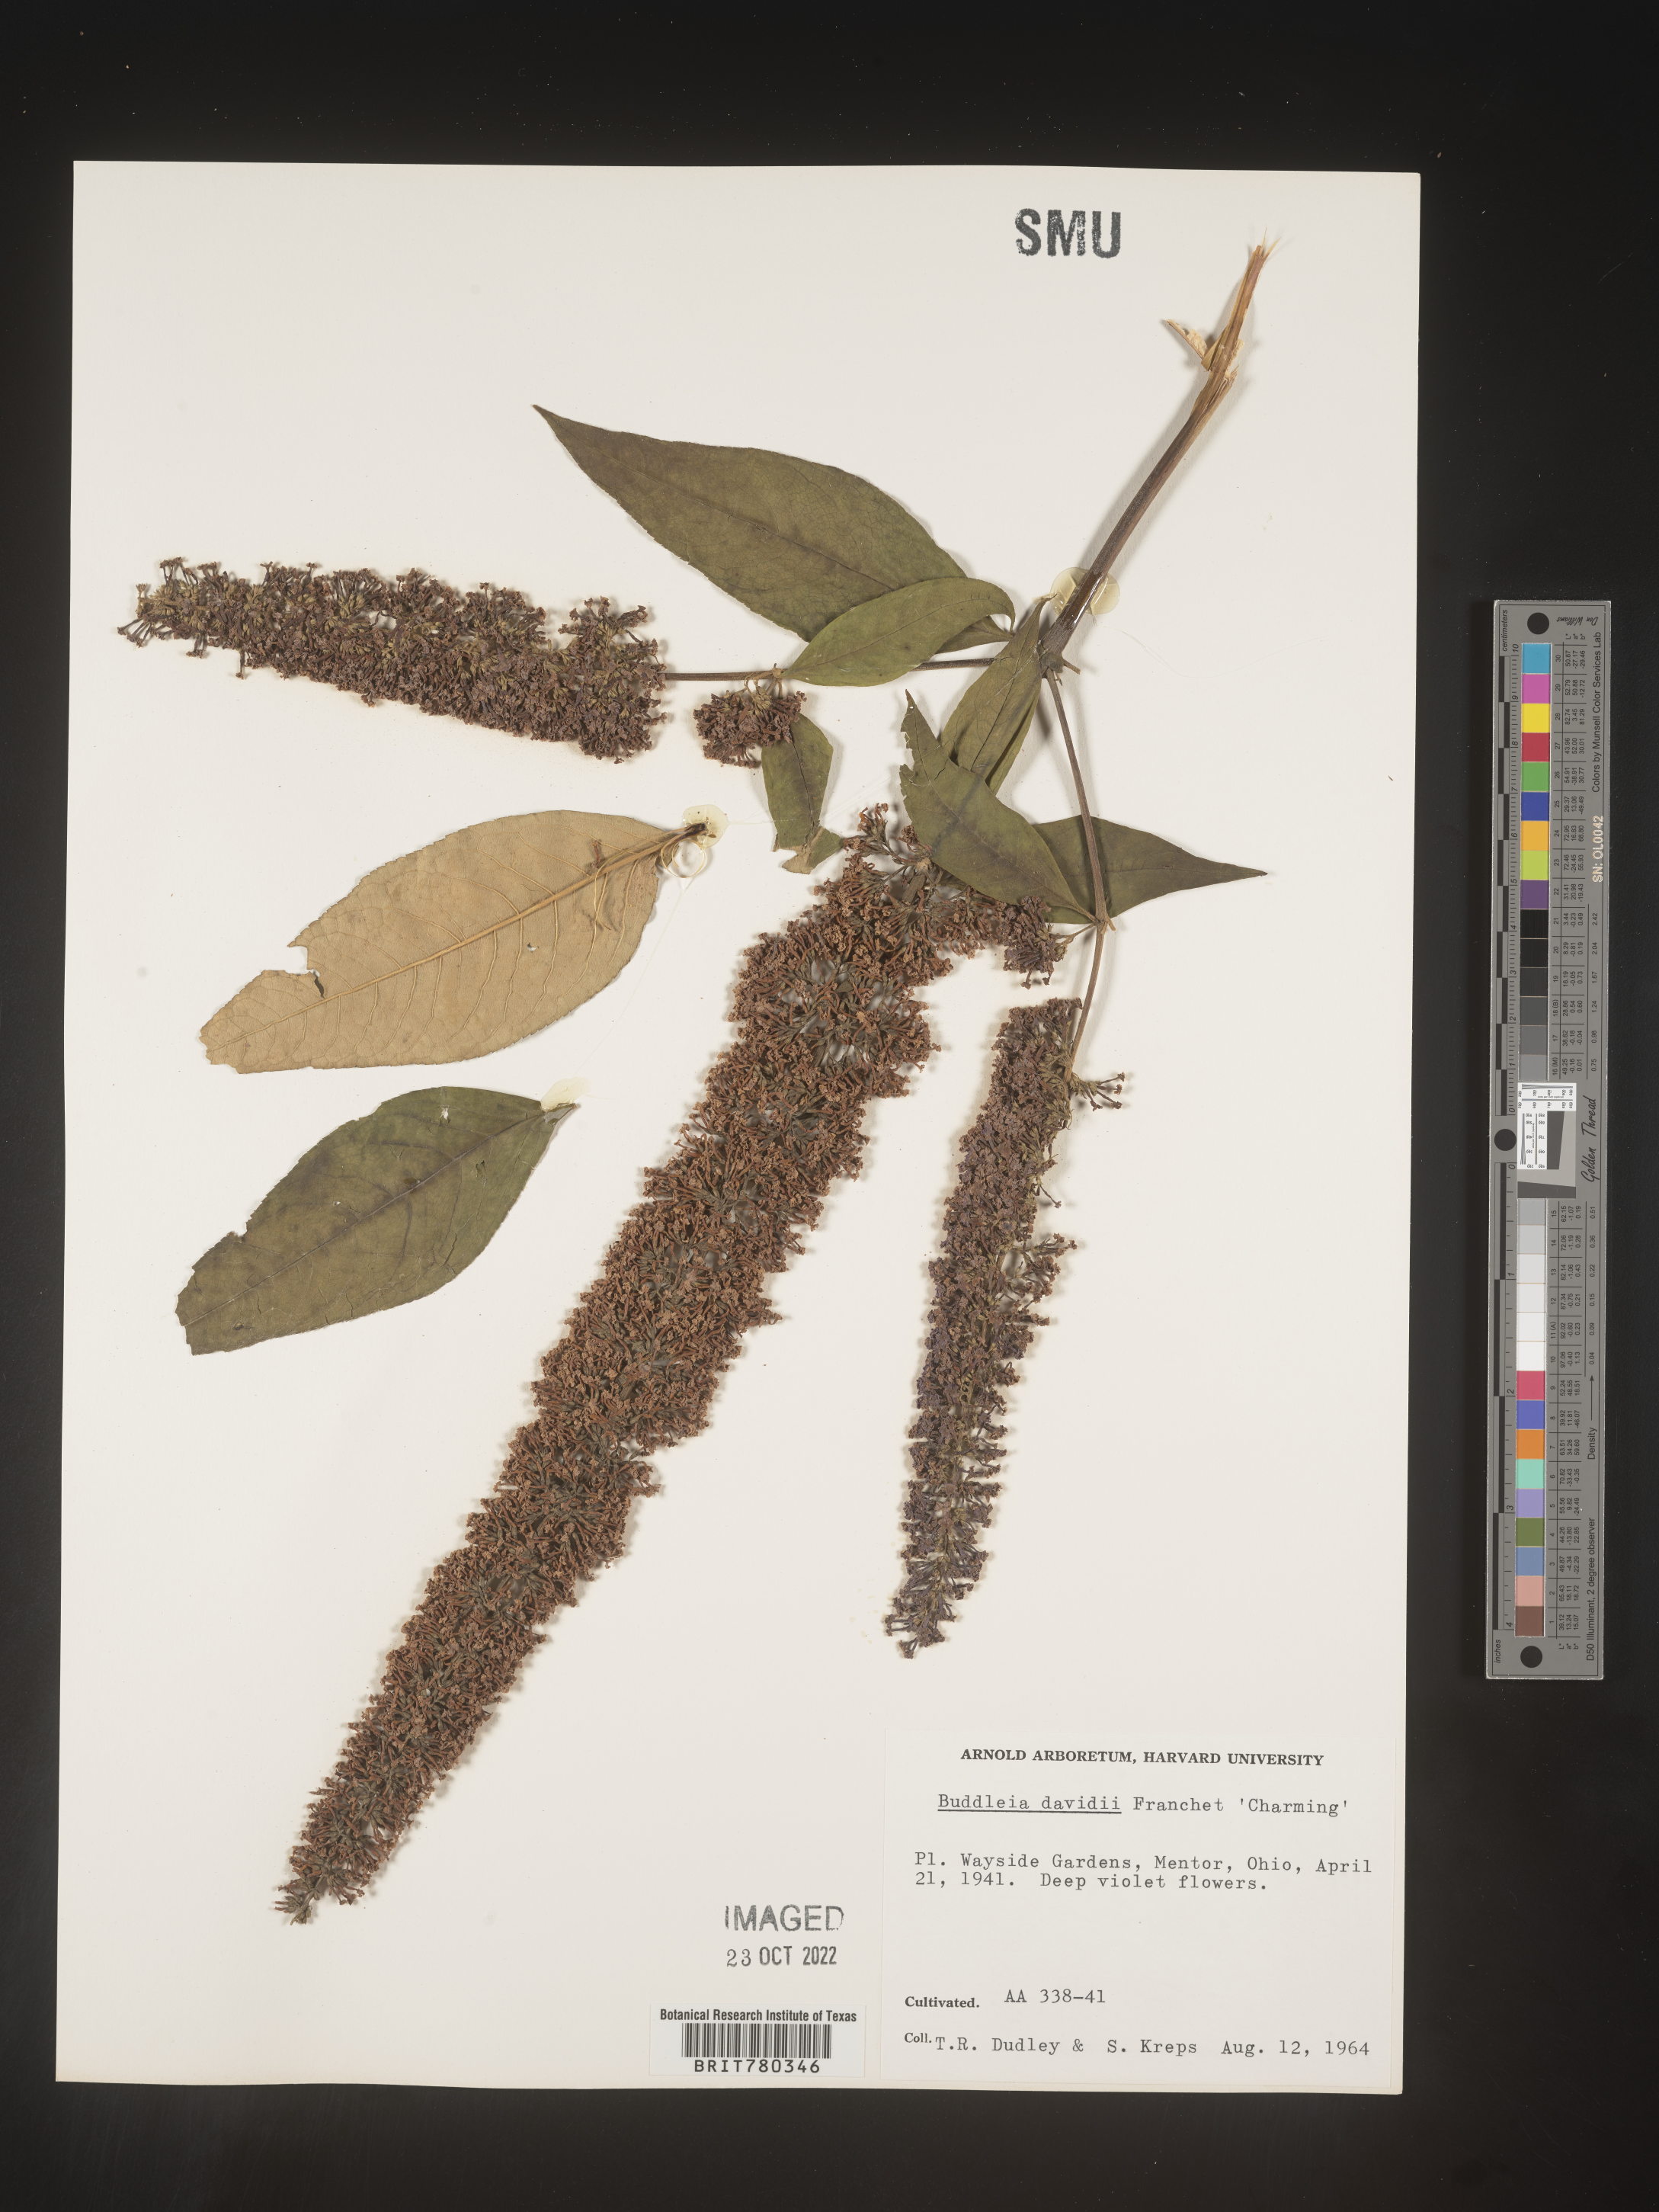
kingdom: Plantae
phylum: Tracheophyta
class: Magnoliopsida
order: Lamiales
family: Scrophulariaceae
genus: Buddleja
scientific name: Buddleja
